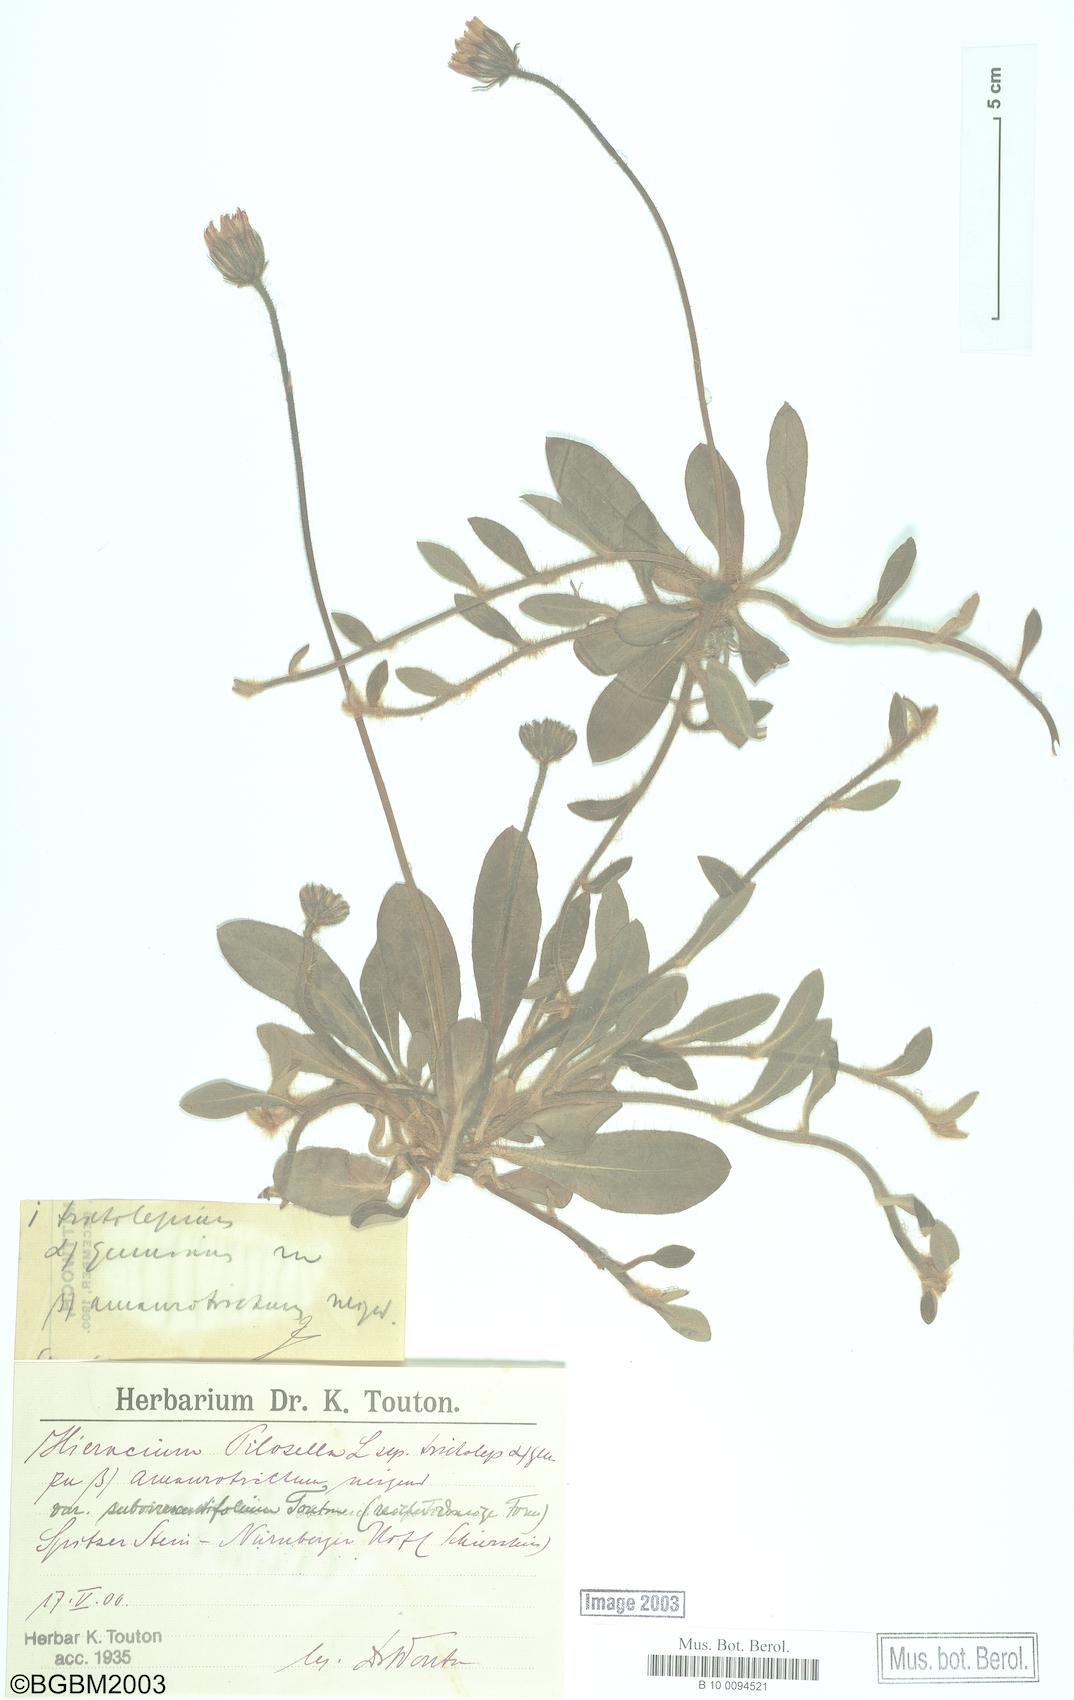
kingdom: Plantae
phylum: Tracheophyta
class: Magnoliopsida
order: Asterales
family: Asteraceae
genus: Pilosella
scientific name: Pilosella officinarum
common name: Mouse-ear hawkweed
